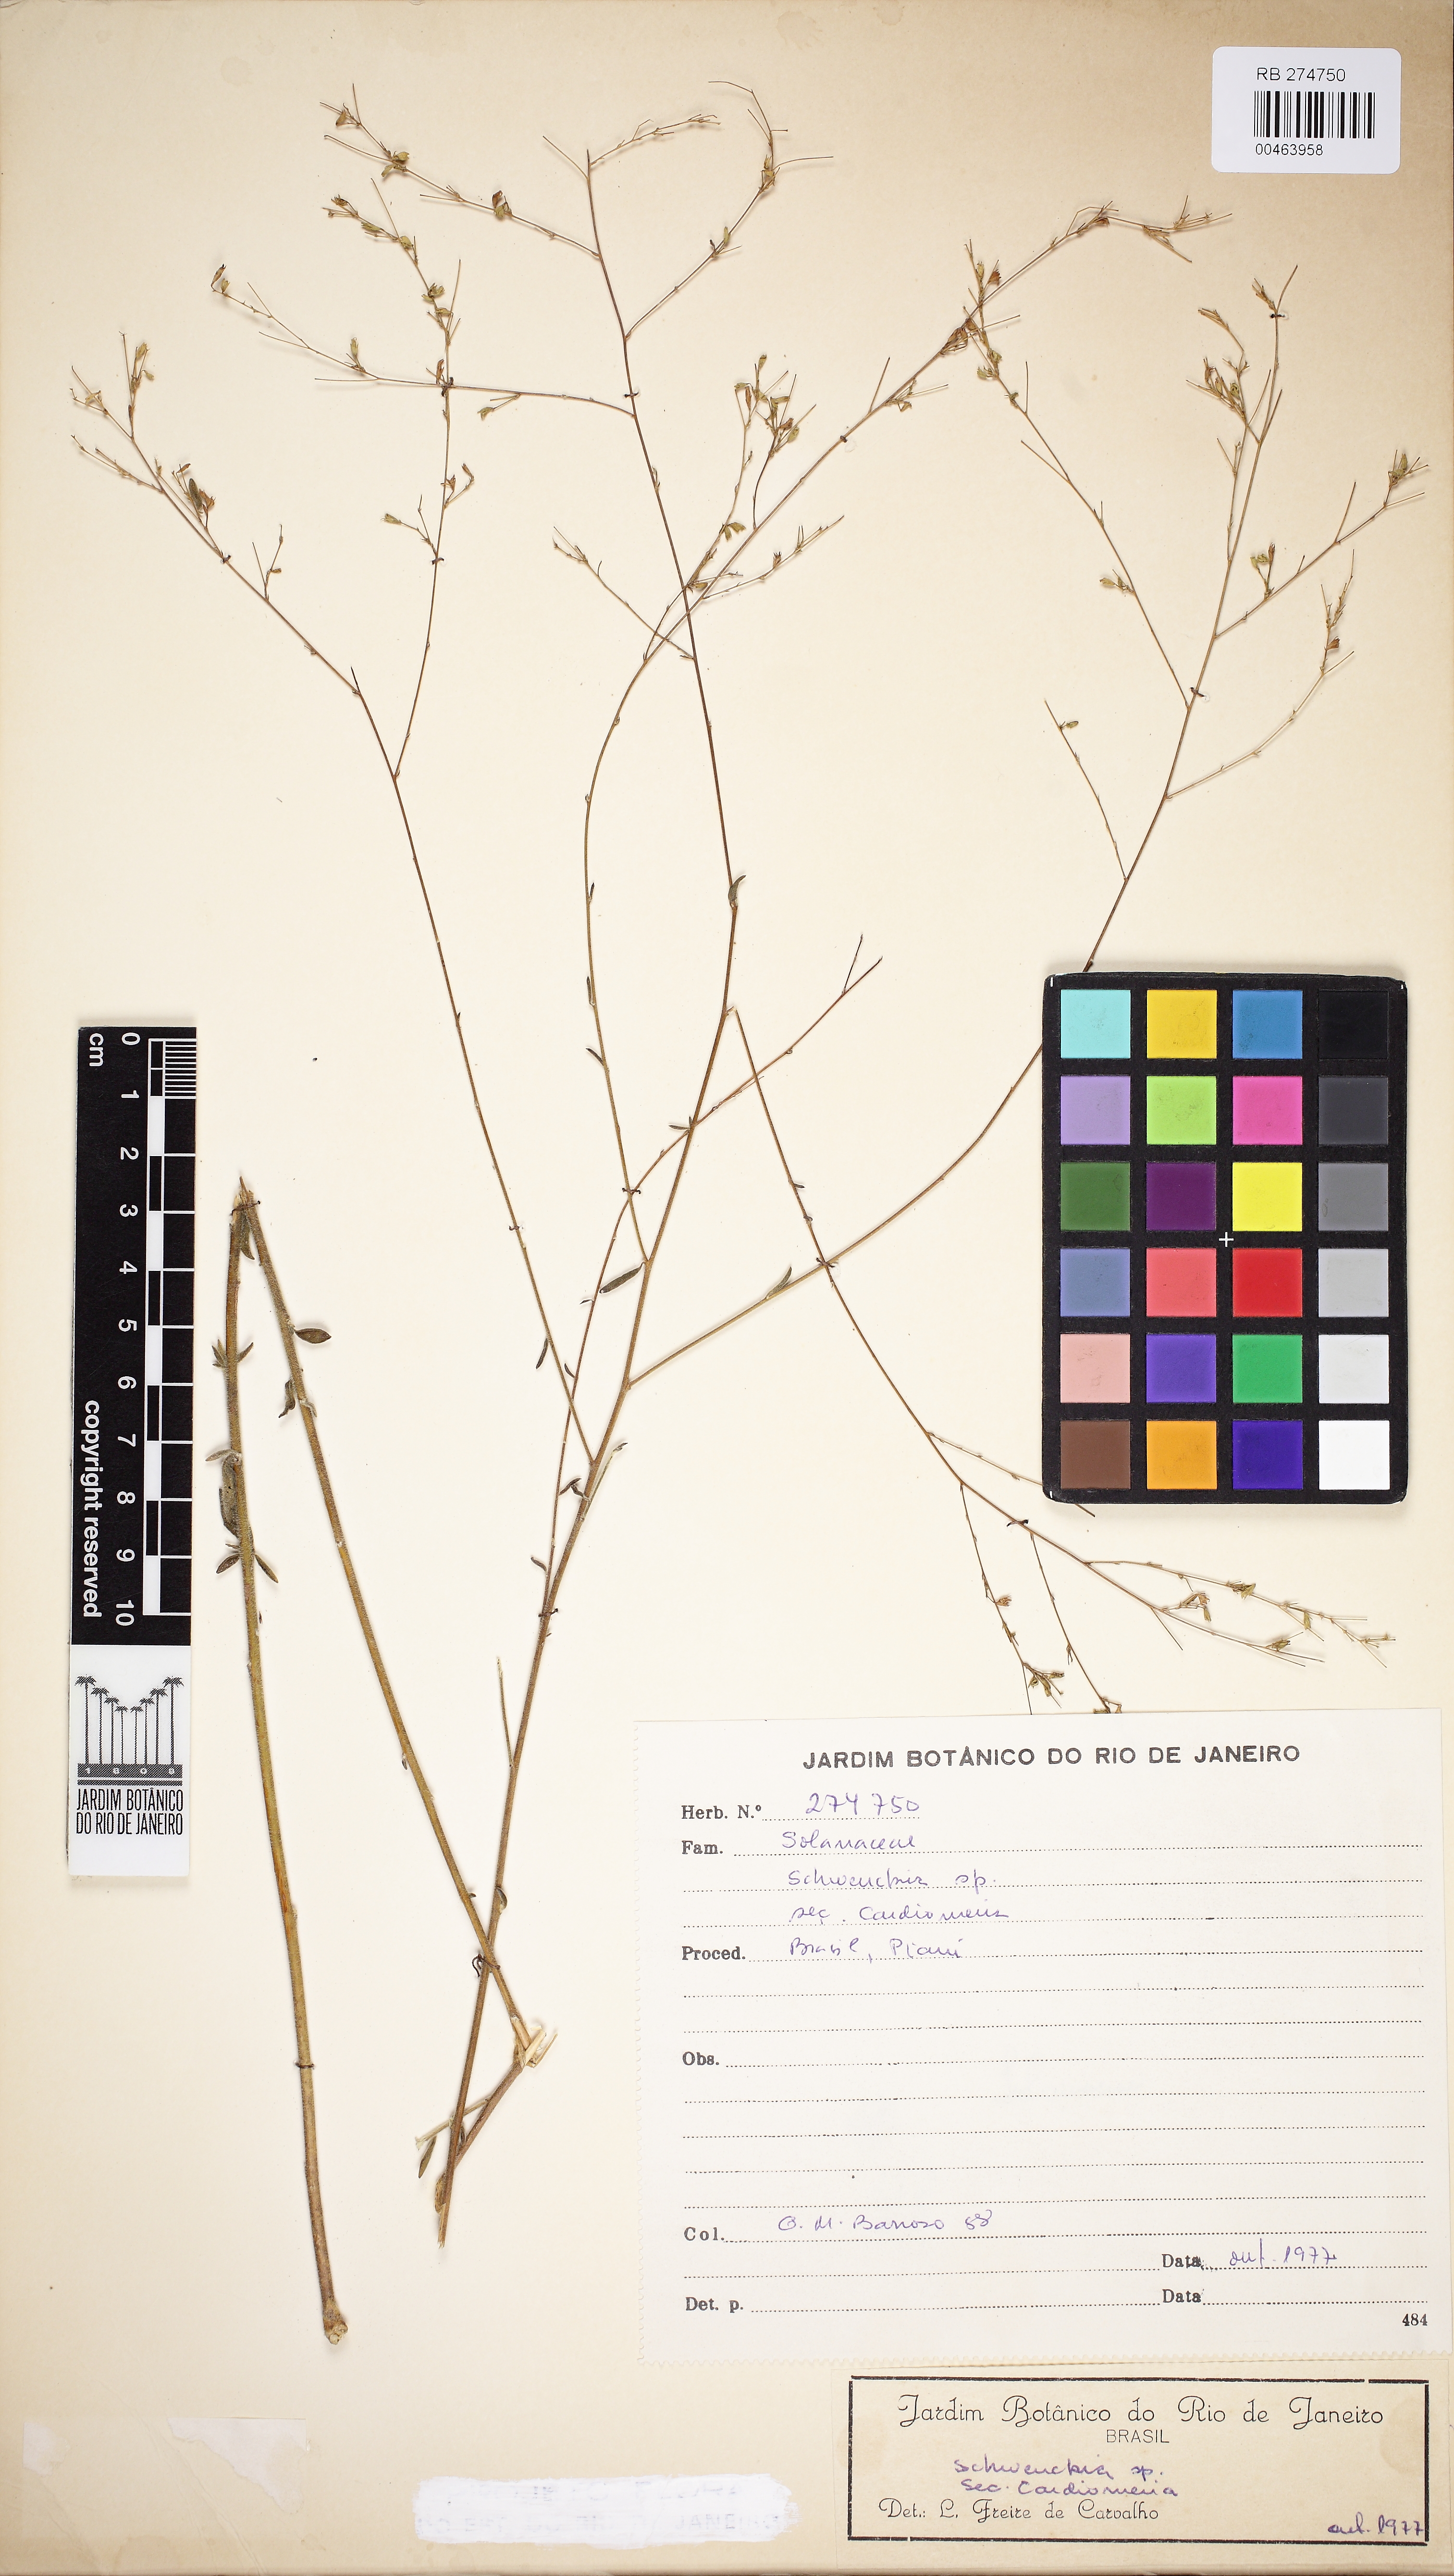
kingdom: Plantae
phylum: Tracheophyta
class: Magnoliopsida
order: Solanales
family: Solanaceae
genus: Schwenckia
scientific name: Schwenckia
